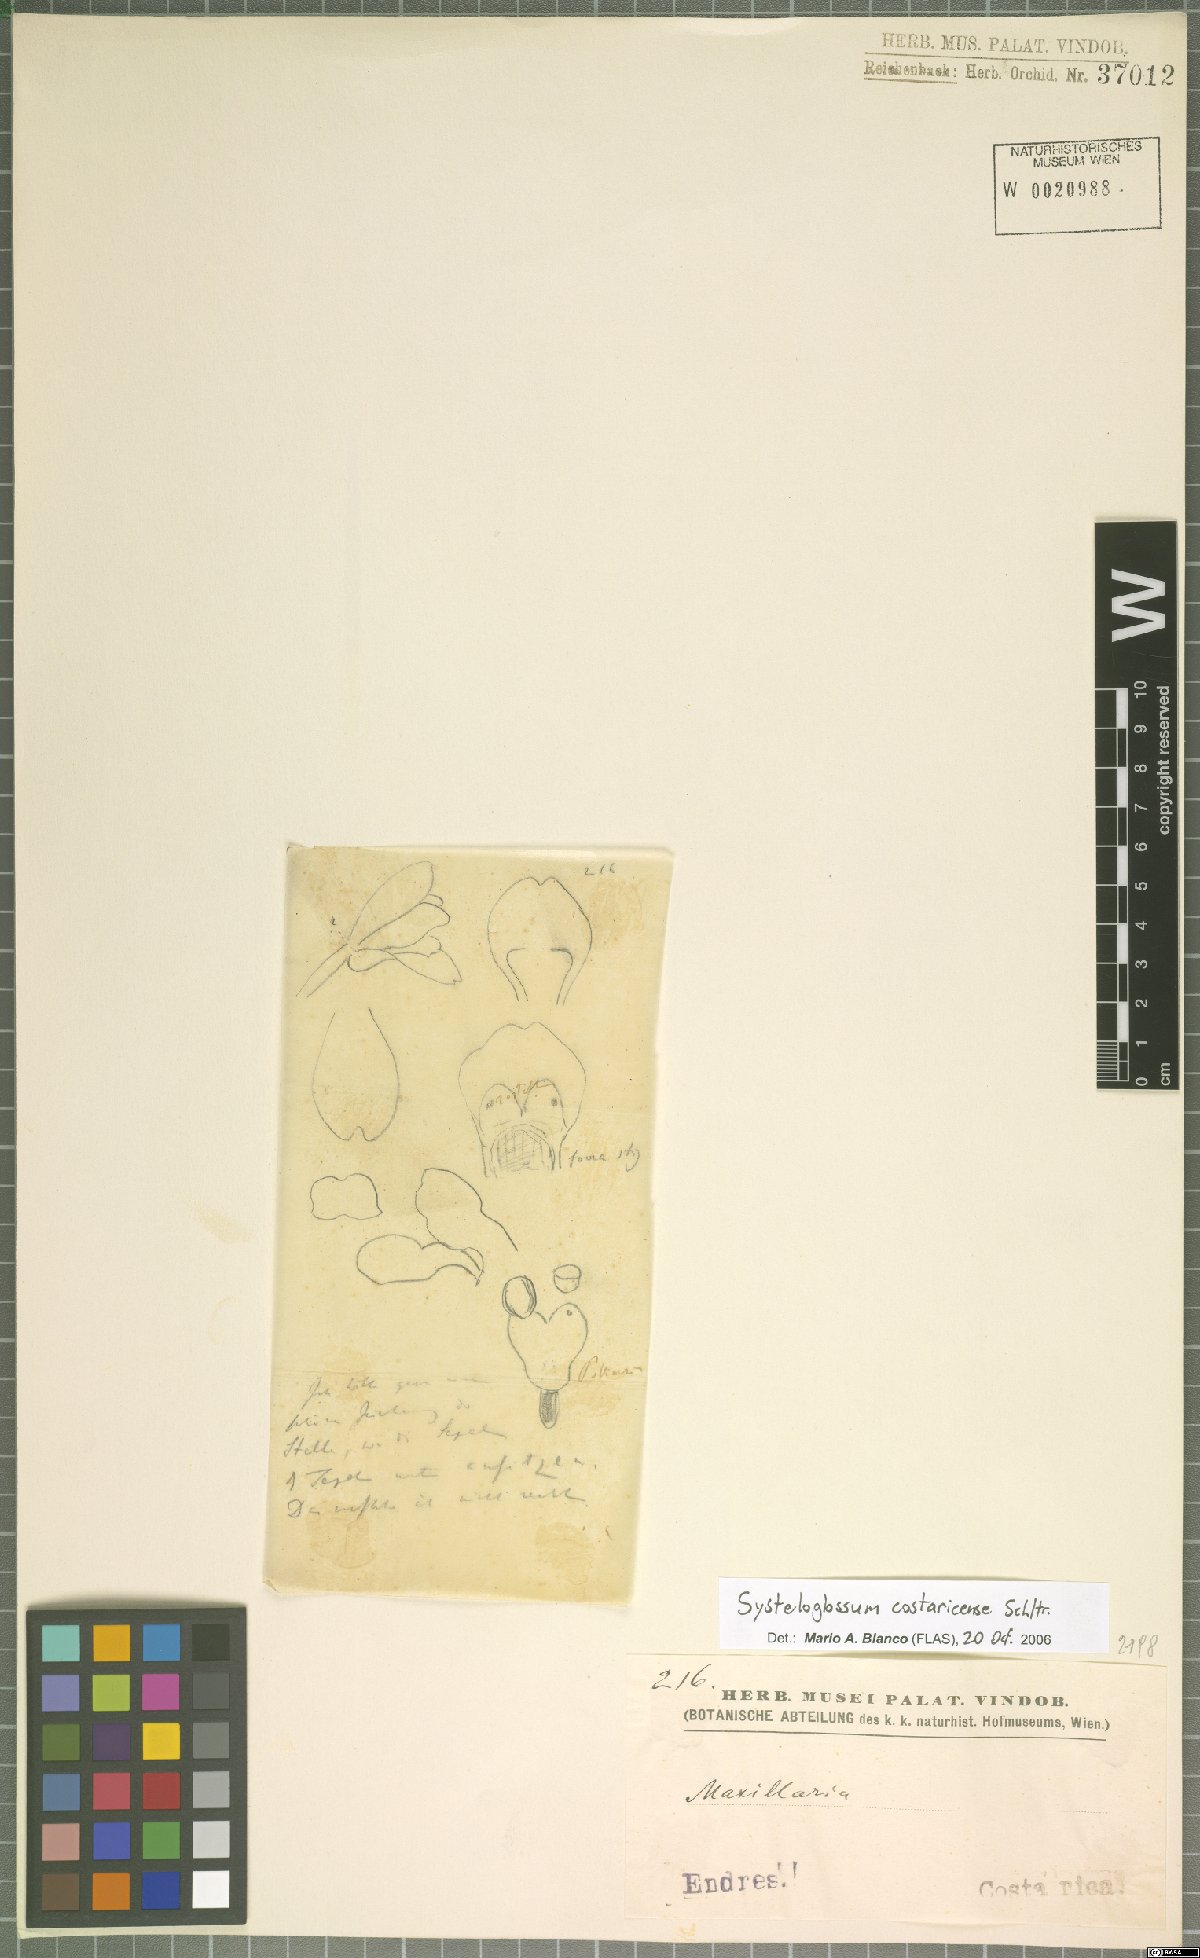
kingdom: Plantae
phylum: Tracheophyta
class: Liliopsida
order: Asparagales
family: Orchidaceae
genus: Systeloglossum
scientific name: Systeloglossum costaricense
